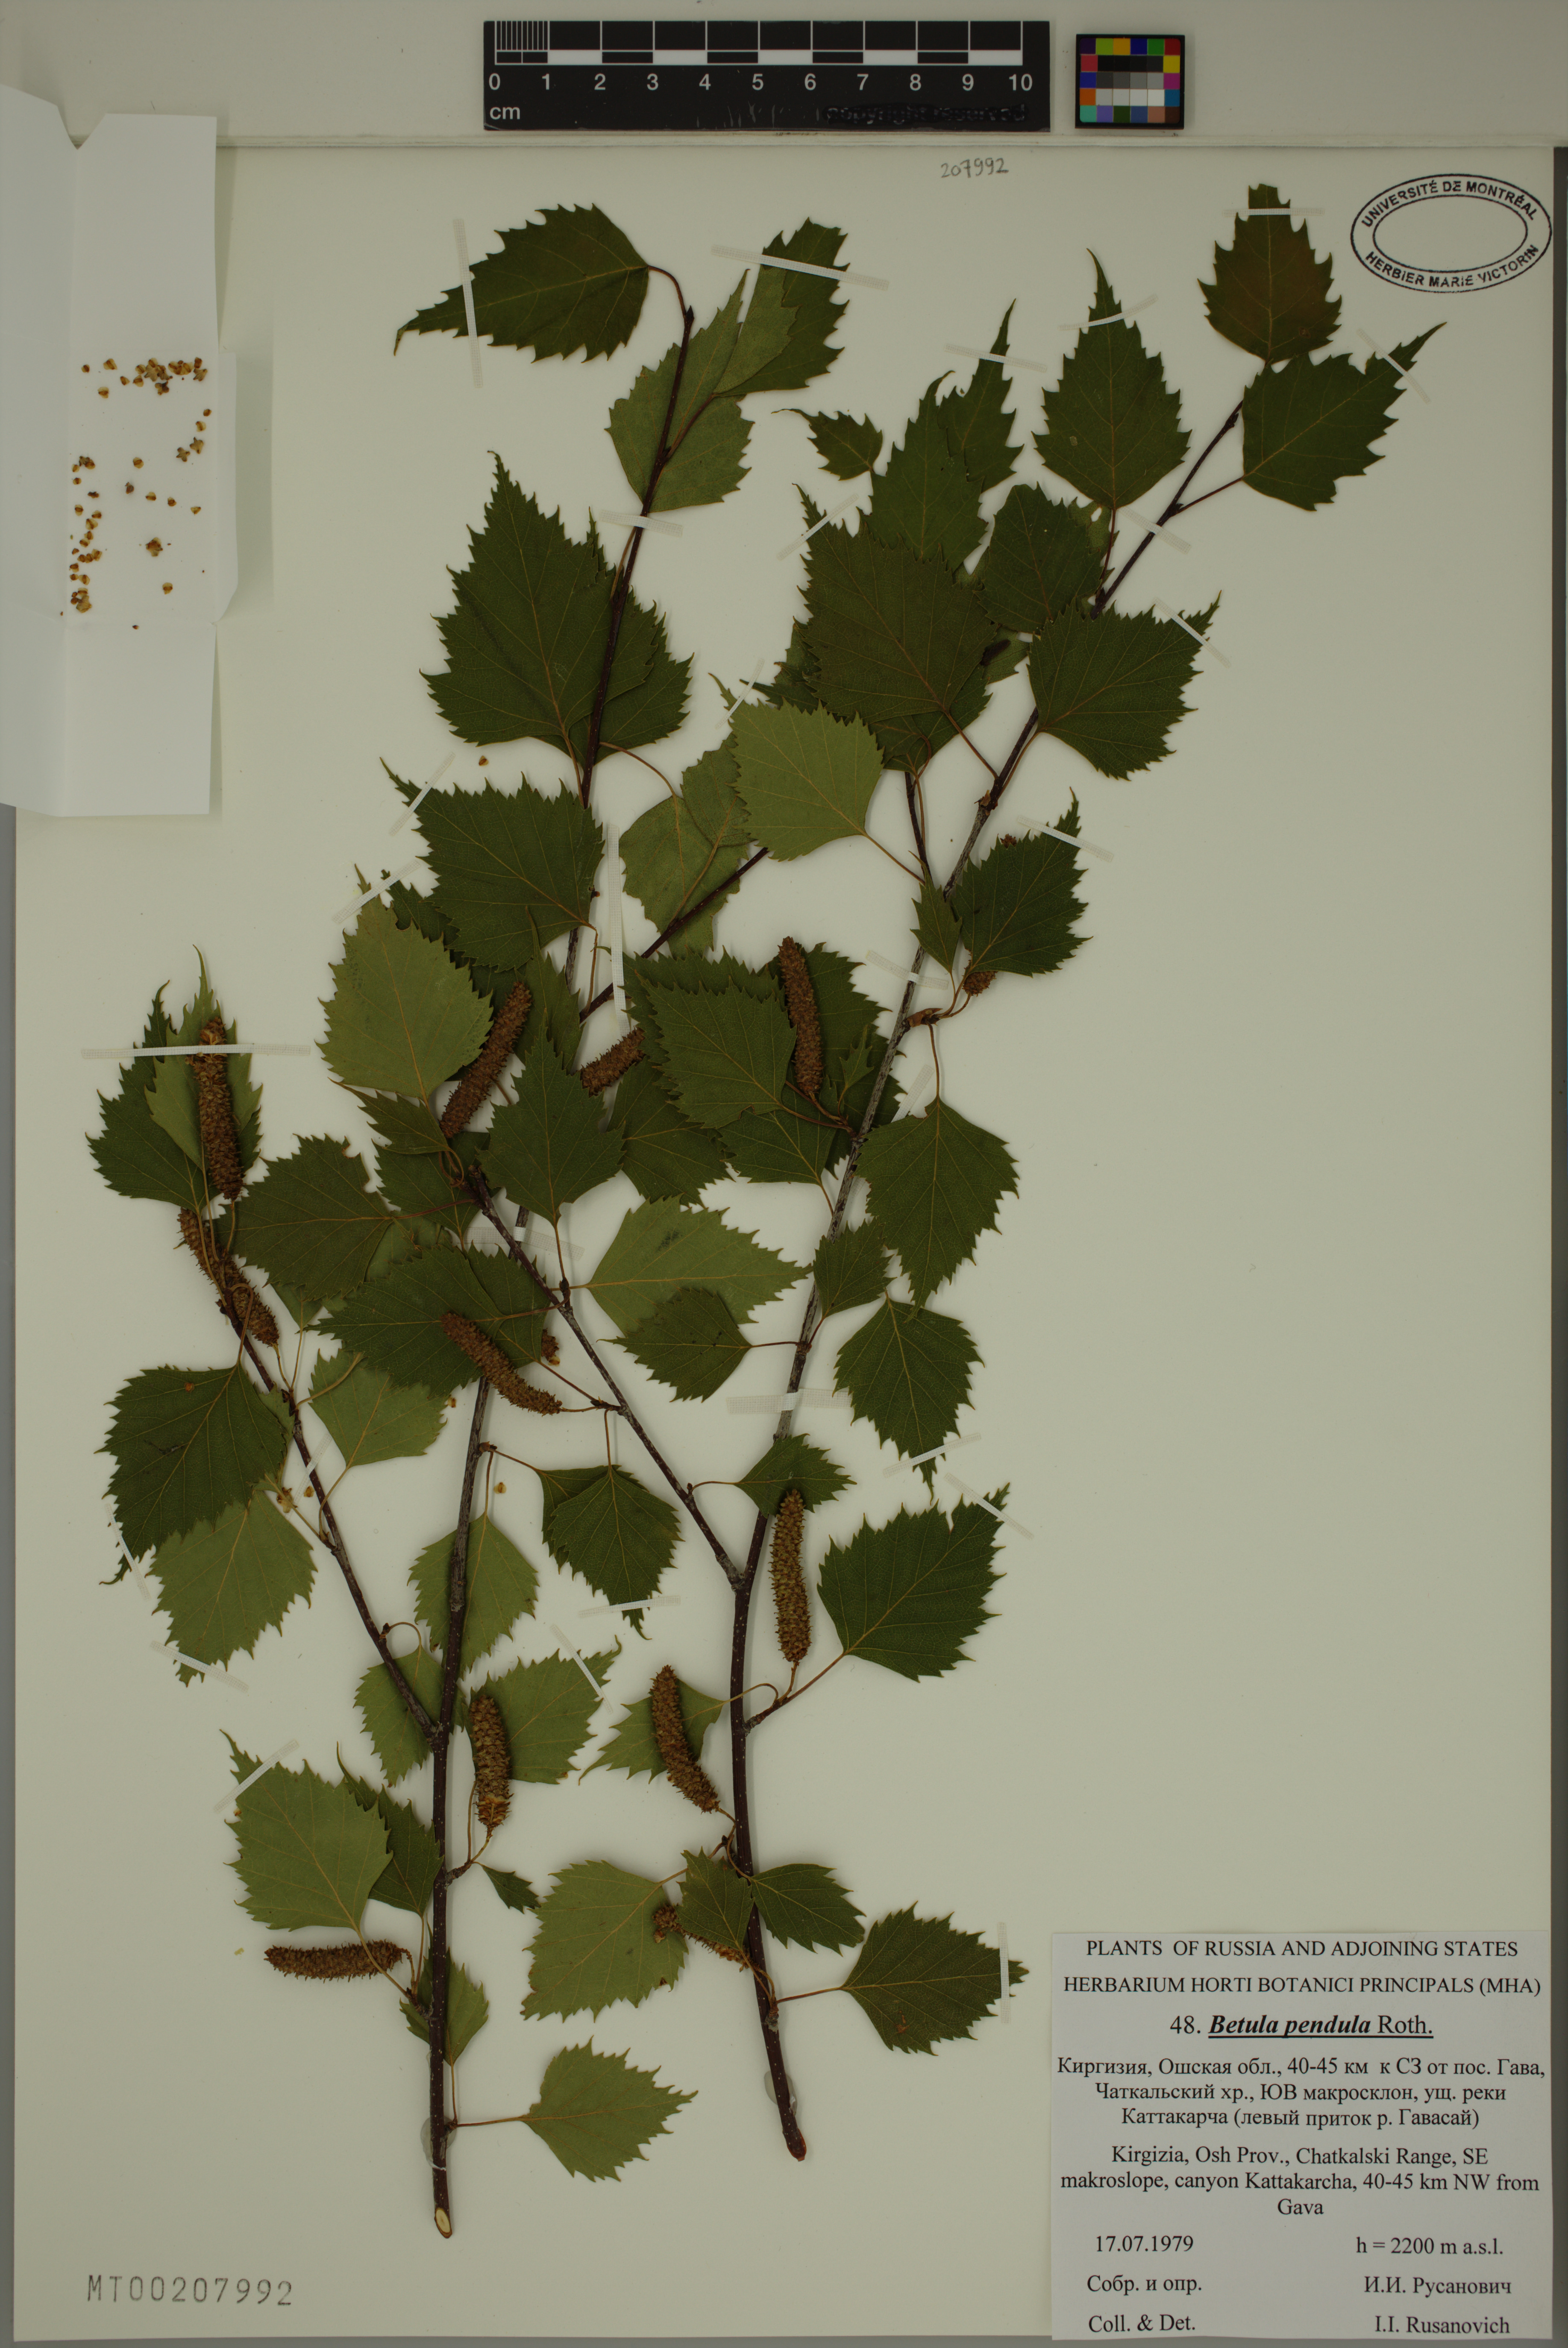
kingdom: Plantae
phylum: Tracheophyta
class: Magnoliopsida
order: Fagales
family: Betulaceae
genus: Betula
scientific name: Betula pendula
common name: Silver birch
